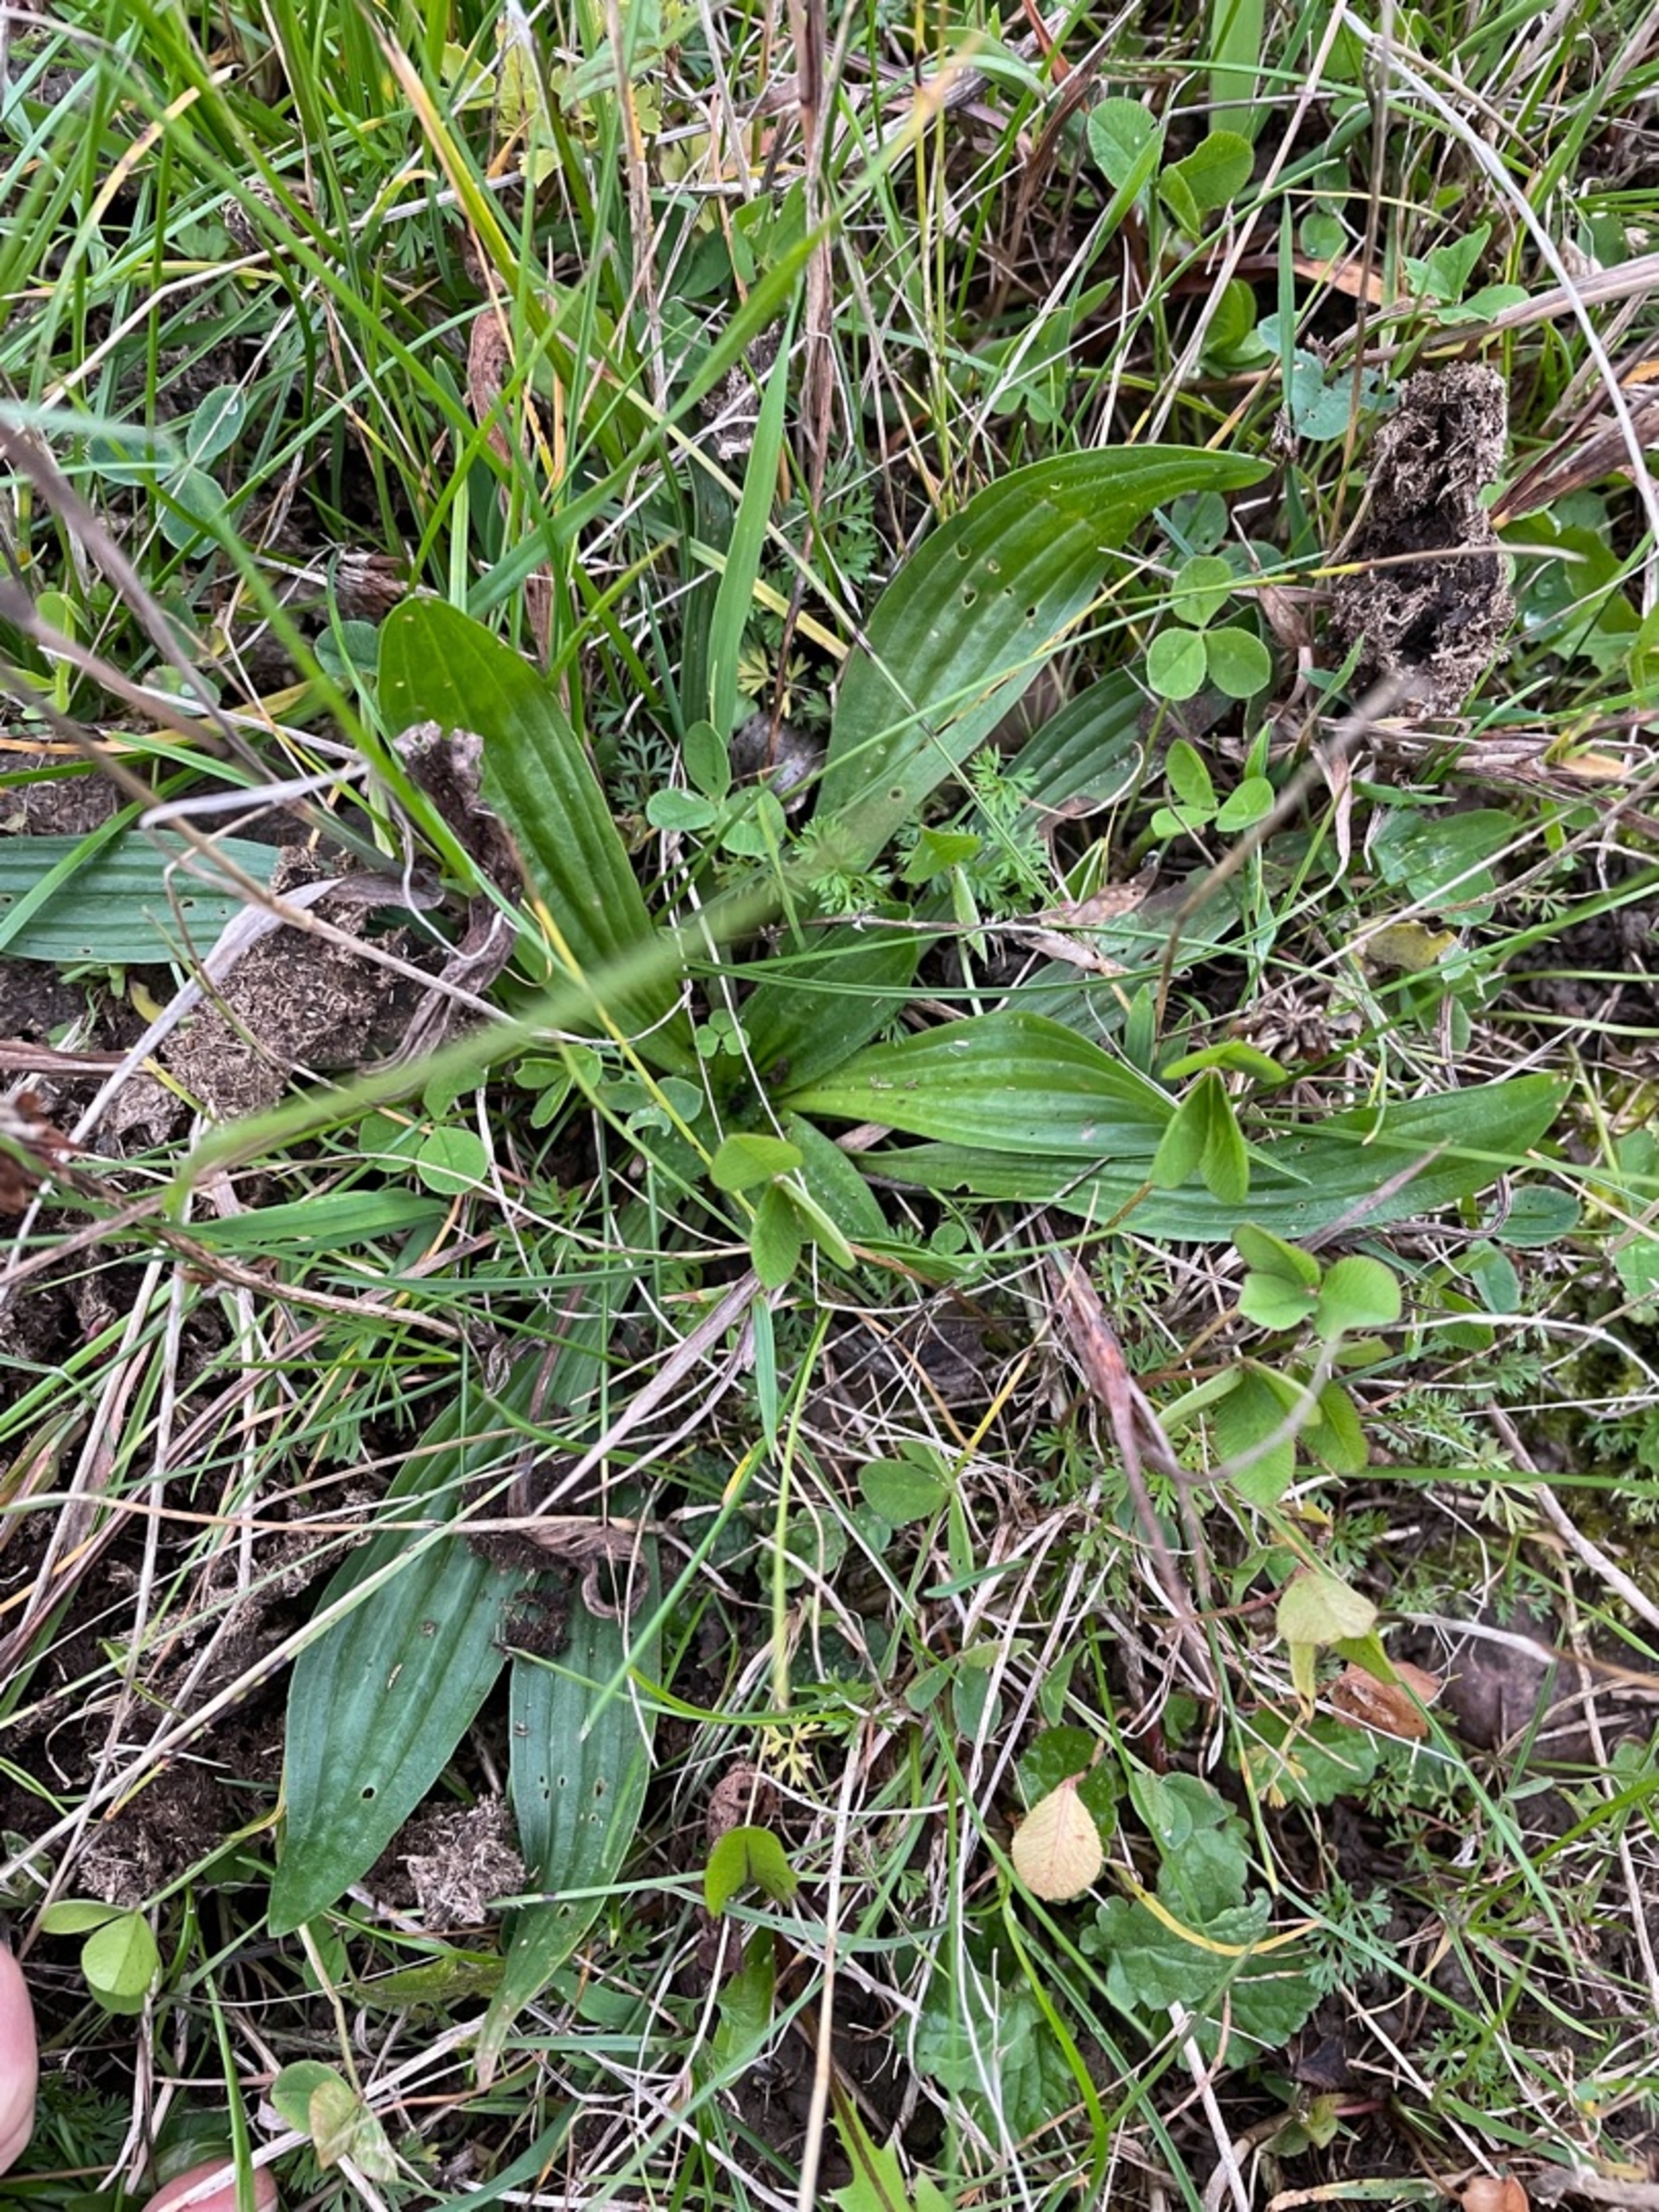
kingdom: Plantae
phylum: Tracheophyta
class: Magnoliopsida
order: Lamiales
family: Plantaginaceae
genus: Plantago
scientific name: Plantago lanceolata
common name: Lancet-vejbred
